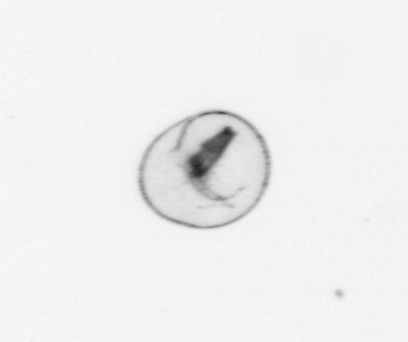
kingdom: Chromista
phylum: Myzozoa
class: Dinophyceae
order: Noctilucales
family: Noctilucaceae
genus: Noctiluca
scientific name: Noctiluca scintillans
